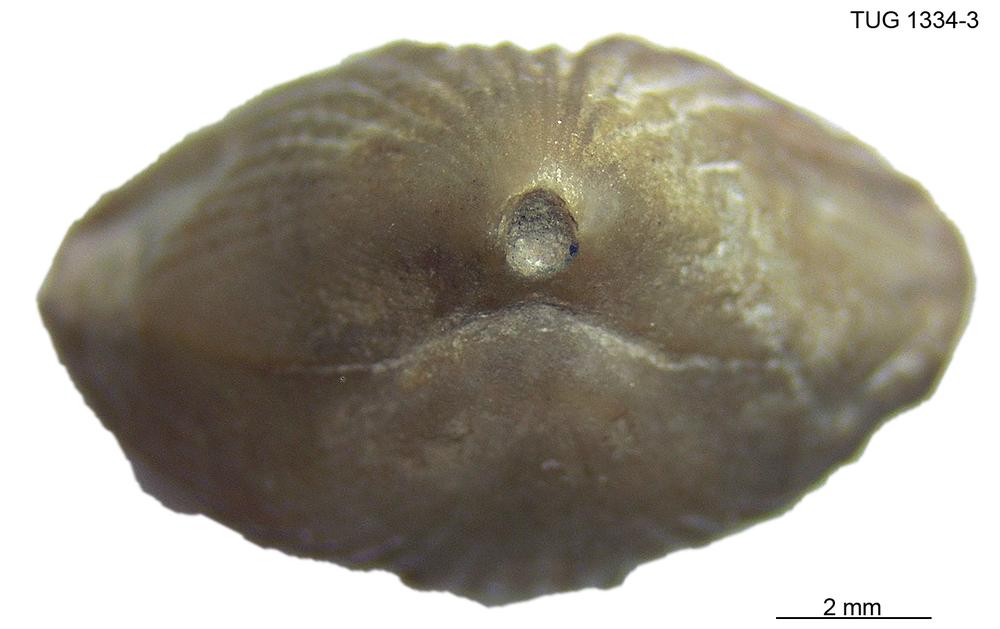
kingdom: Animalia
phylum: Brachiopoda
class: Rhynchonellata
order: Rhynchonellida
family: Rhynchotrematidae
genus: Hypsiptycha
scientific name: Hypsiptycha procera
